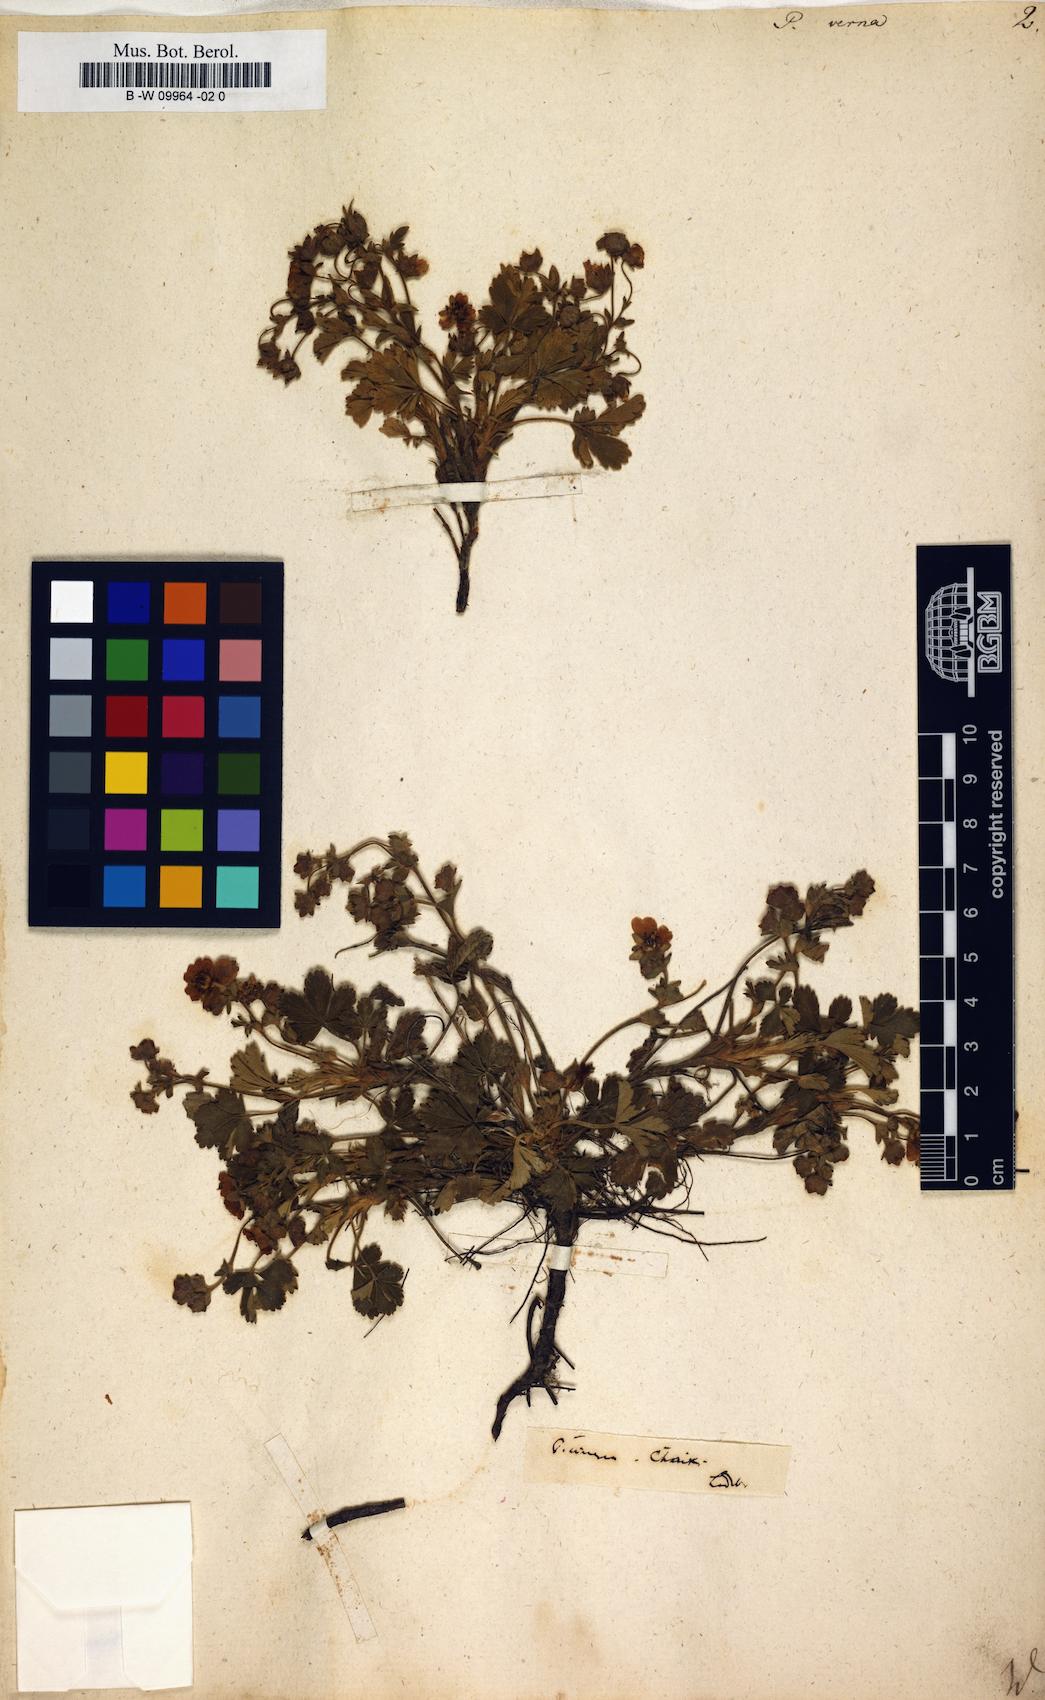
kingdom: Plantae
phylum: Tracheophyta
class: Magnoliopsida
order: Rosales
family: Rosaceae
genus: Potentilla
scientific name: Potentilla verna
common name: Spring cinquefoil
